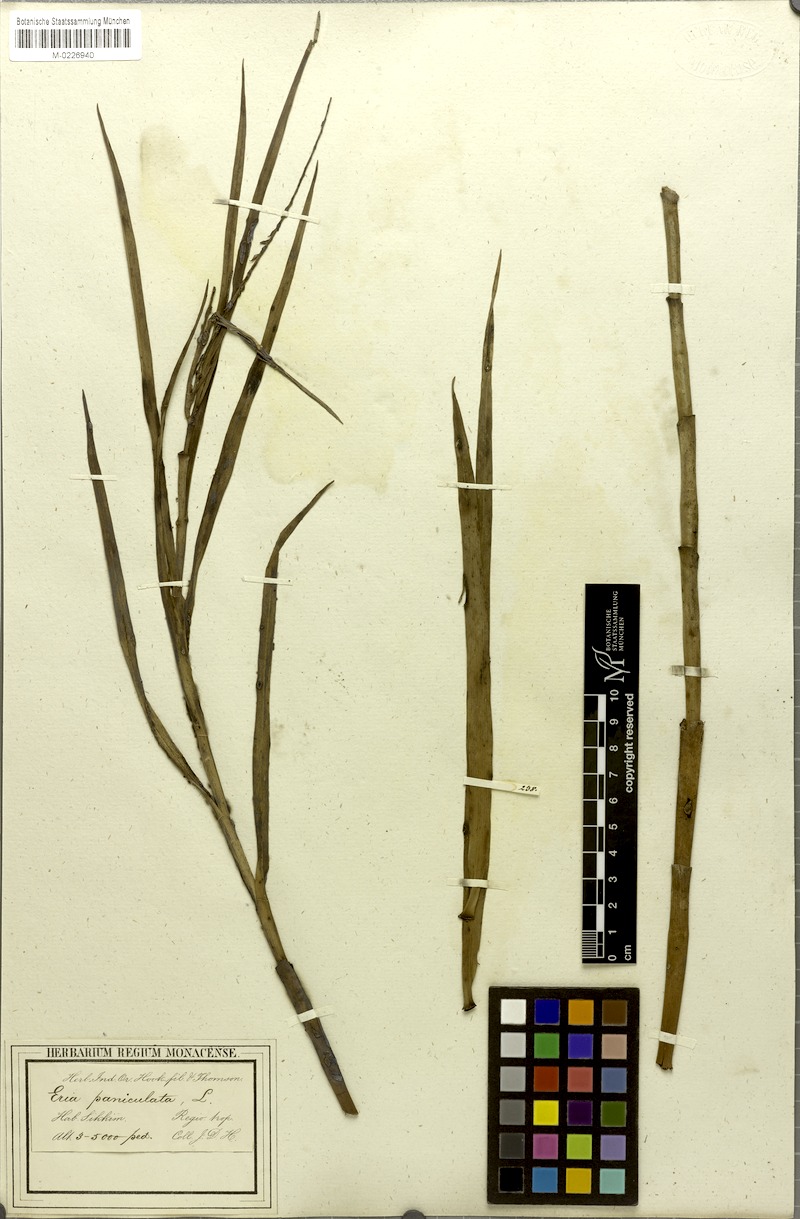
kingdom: Plantae
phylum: Tracheophyta
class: Liliopsida
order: Asparagales
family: Orchidaceae
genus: Mycaranthes
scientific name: Mycaranthes floribunda
